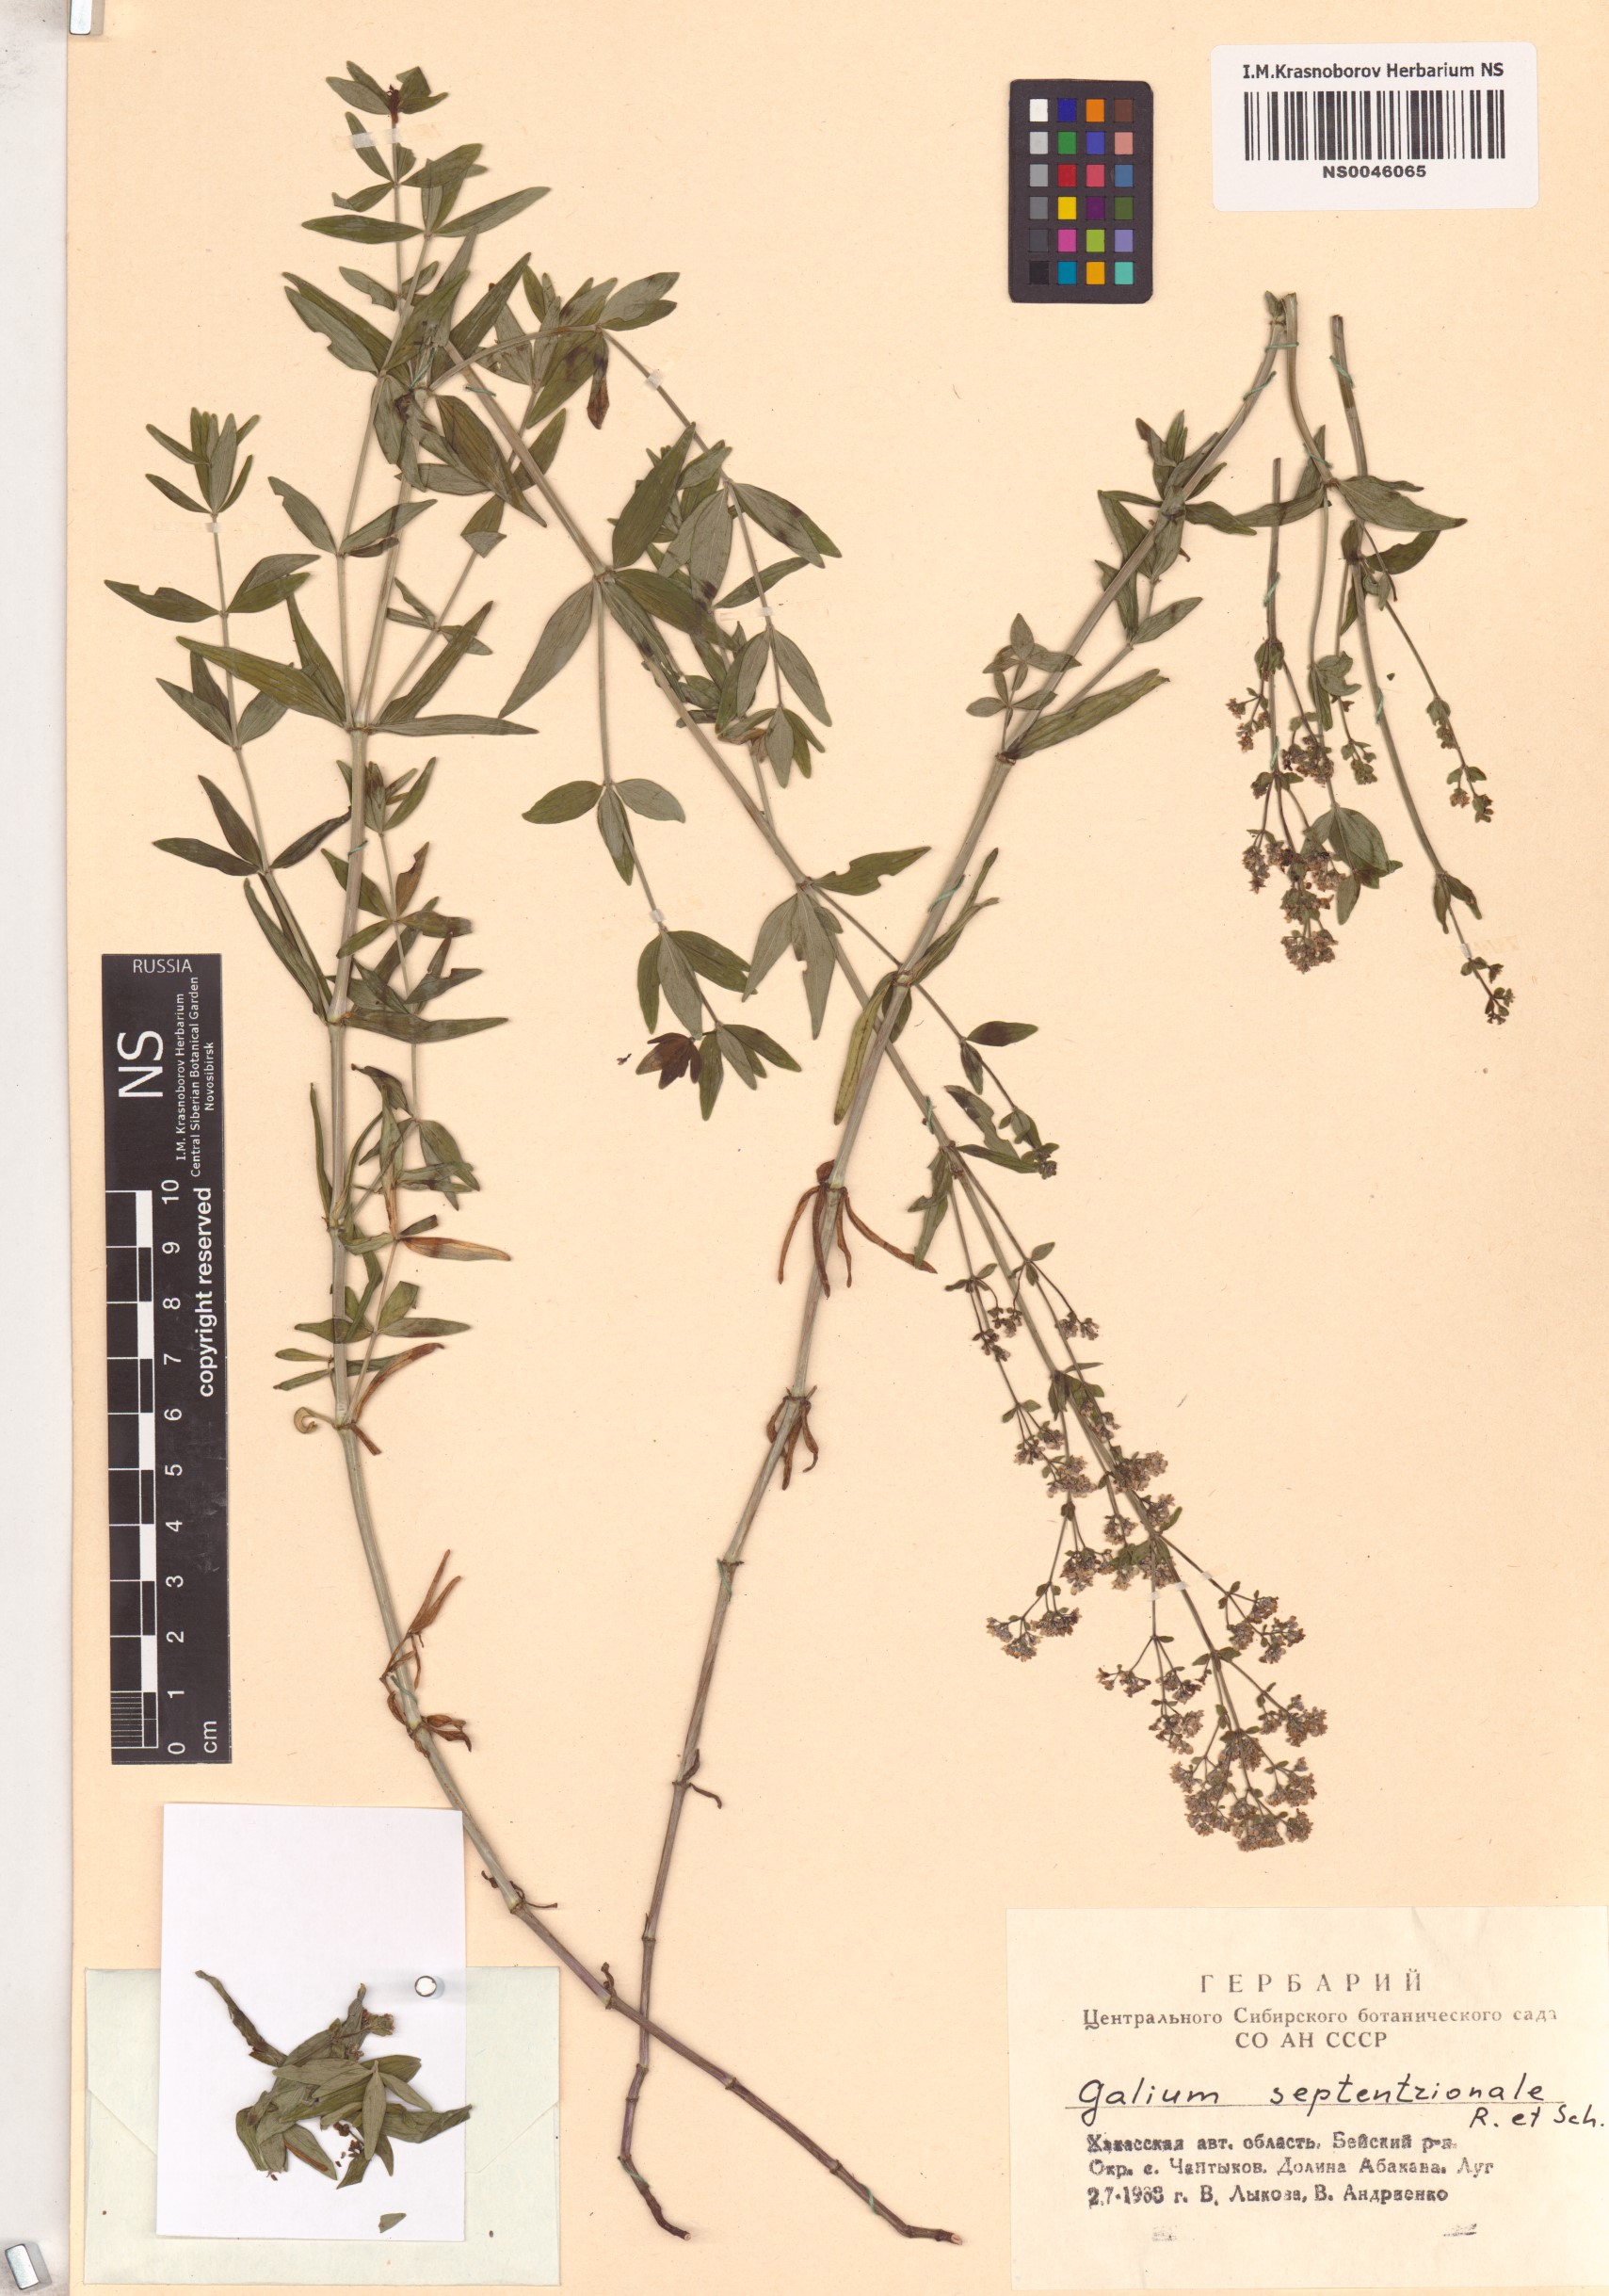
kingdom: Plantae
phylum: Tracheophyta
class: Magnoliopsida
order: Gentianales
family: Rubiaceae
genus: Galium
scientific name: Galium boreale
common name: Northern bedstraw
